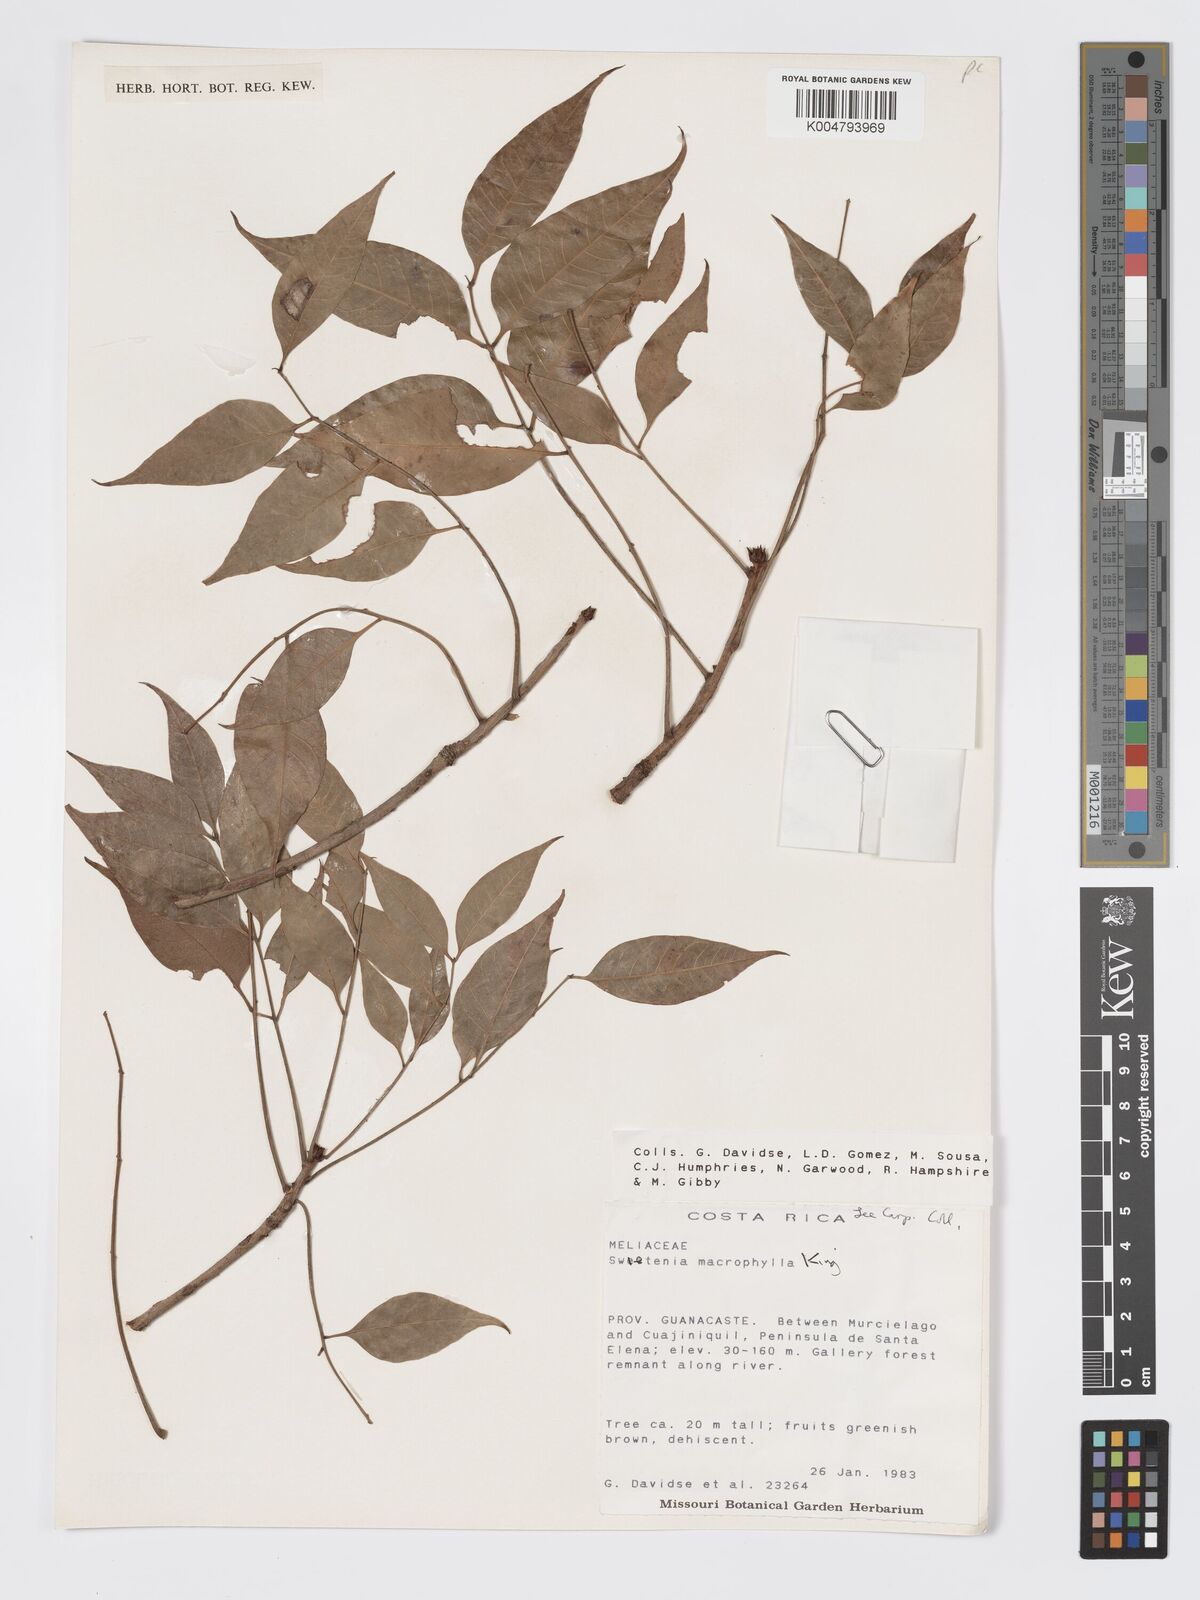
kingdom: Plantae
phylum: Tracheophyta
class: Magnoliopsida
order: Sapindales
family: Meliaceae
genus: Swietenia
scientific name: Swietenia humilis
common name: Pacific coast mahogany
